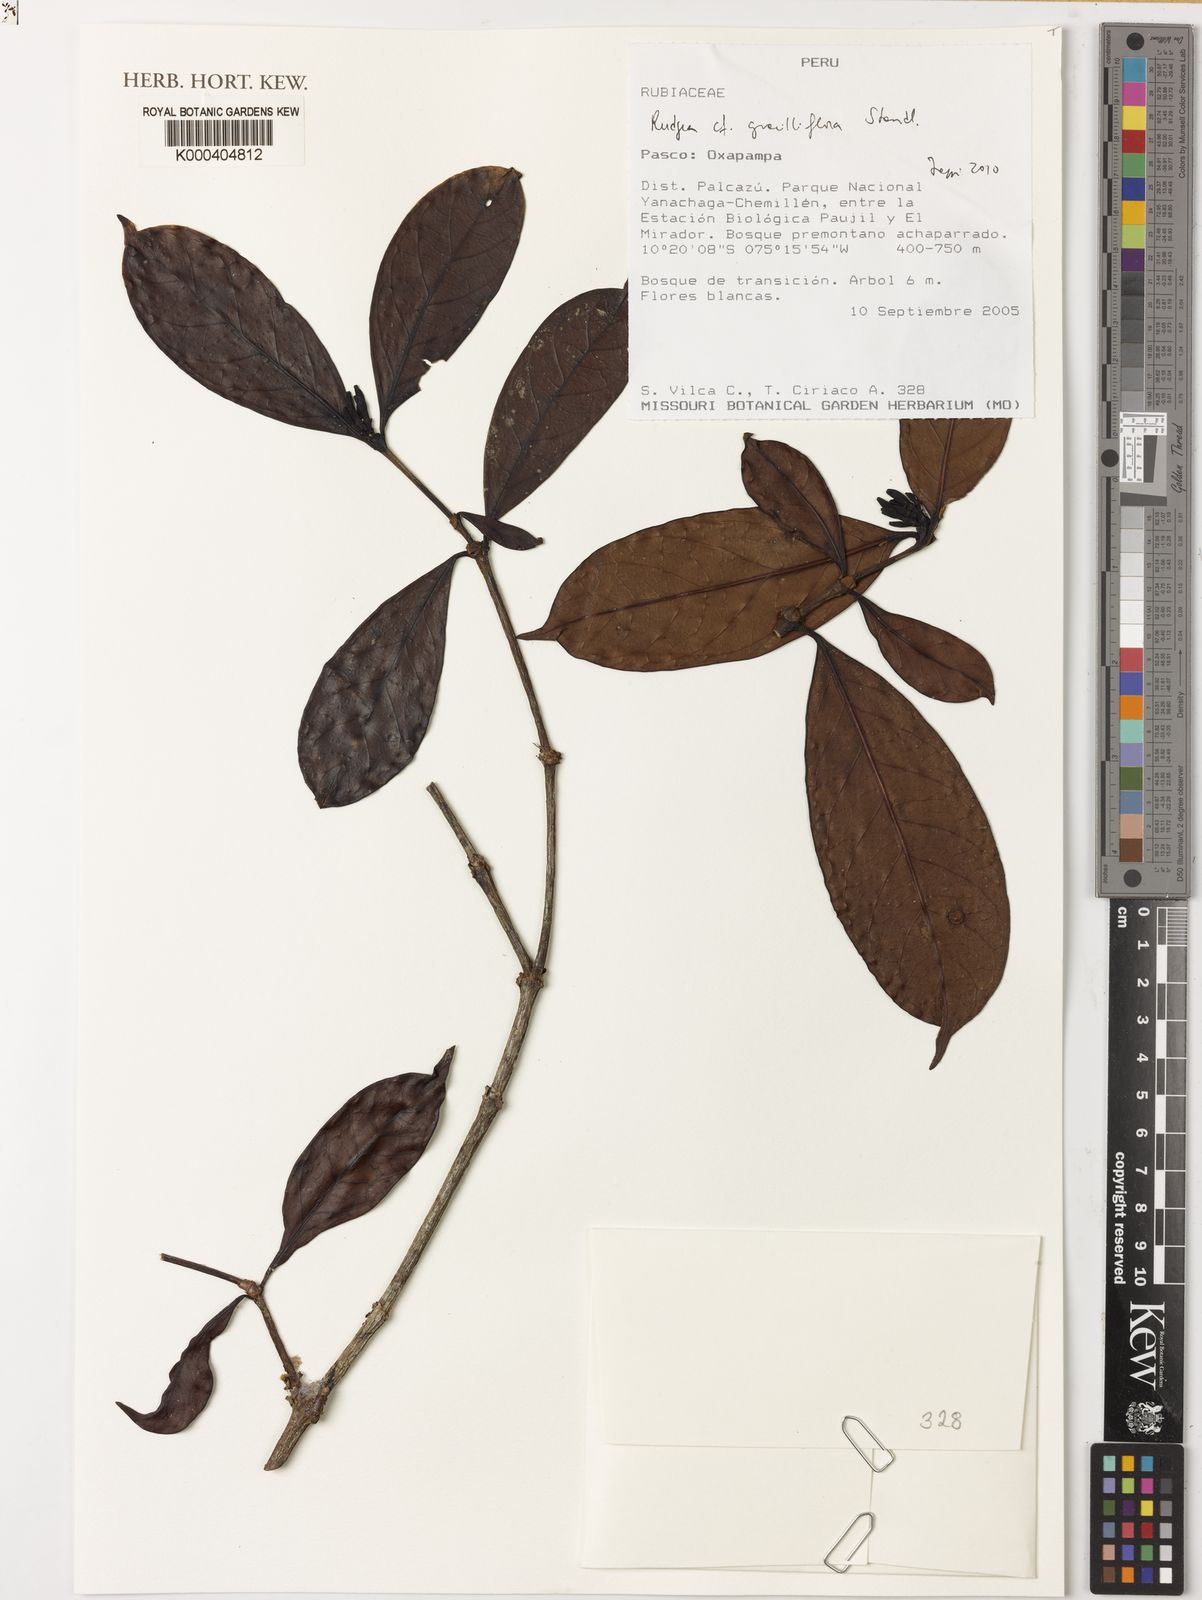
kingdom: Plantae
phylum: Tracheophyta
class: Magnoliopsida
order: Gentianales
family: Rubiaceae
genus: Rudgea
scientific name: Rudgea graciliflora
